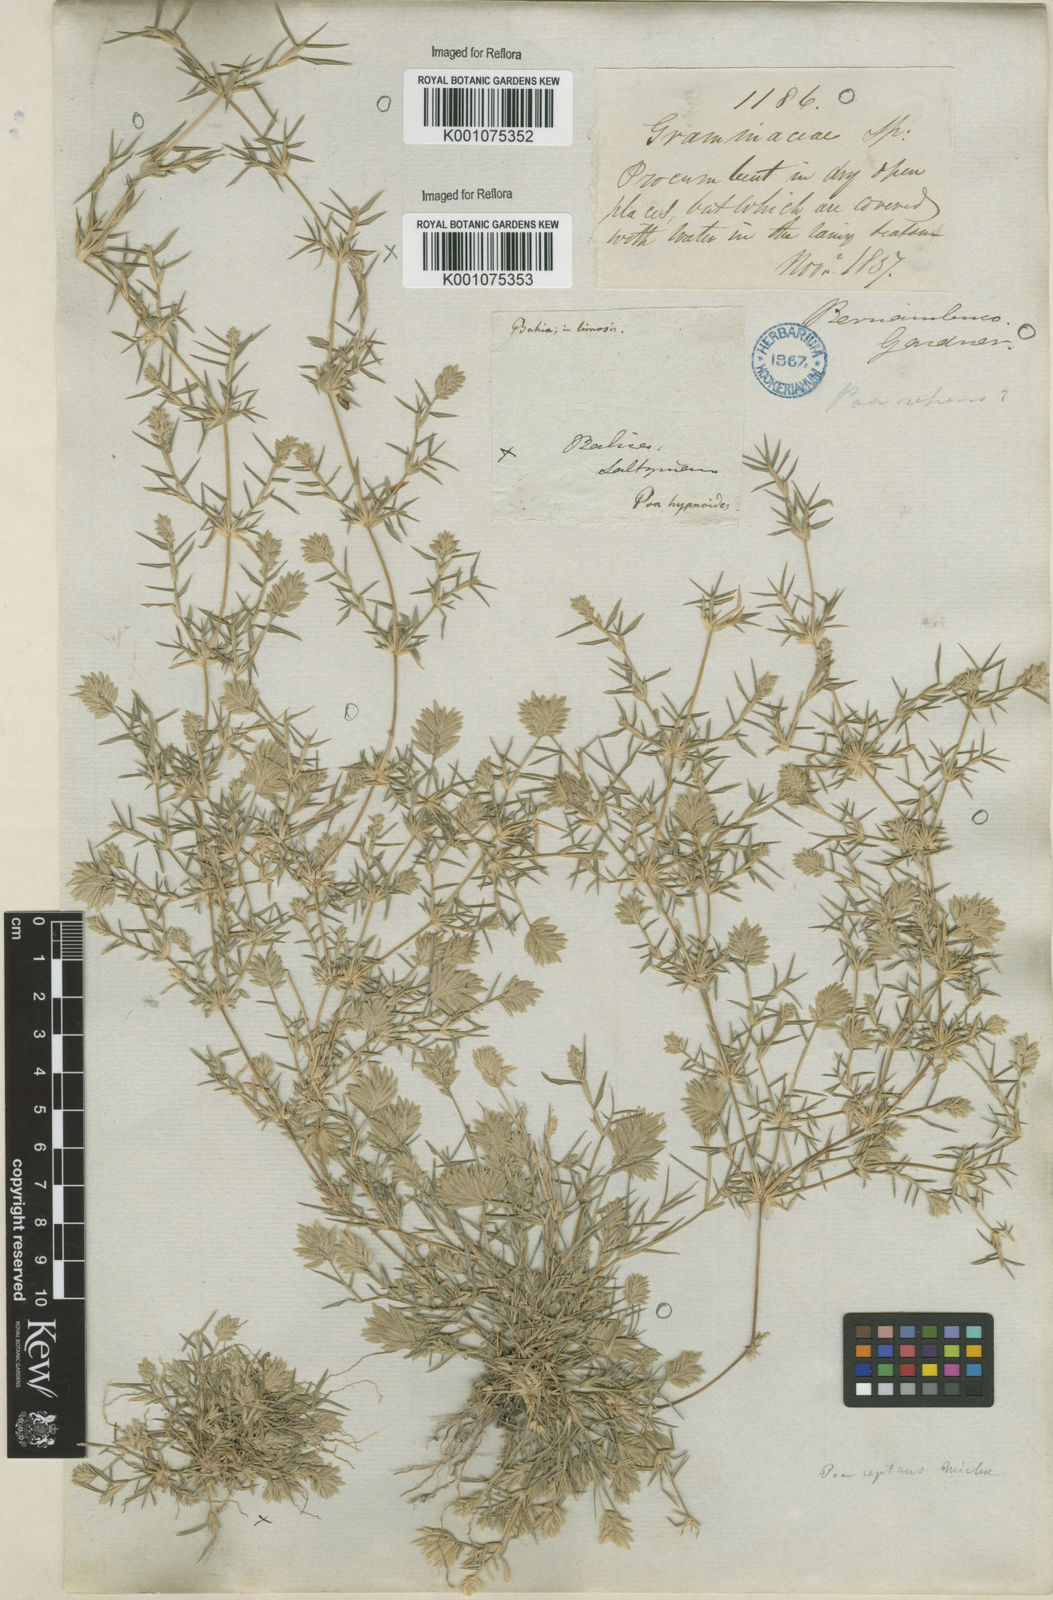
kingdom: Plantae
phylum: Tracheophyta
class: Liliopsida
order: Poales
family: Poaceae
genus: Eragrostis
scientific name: Eragrostis
